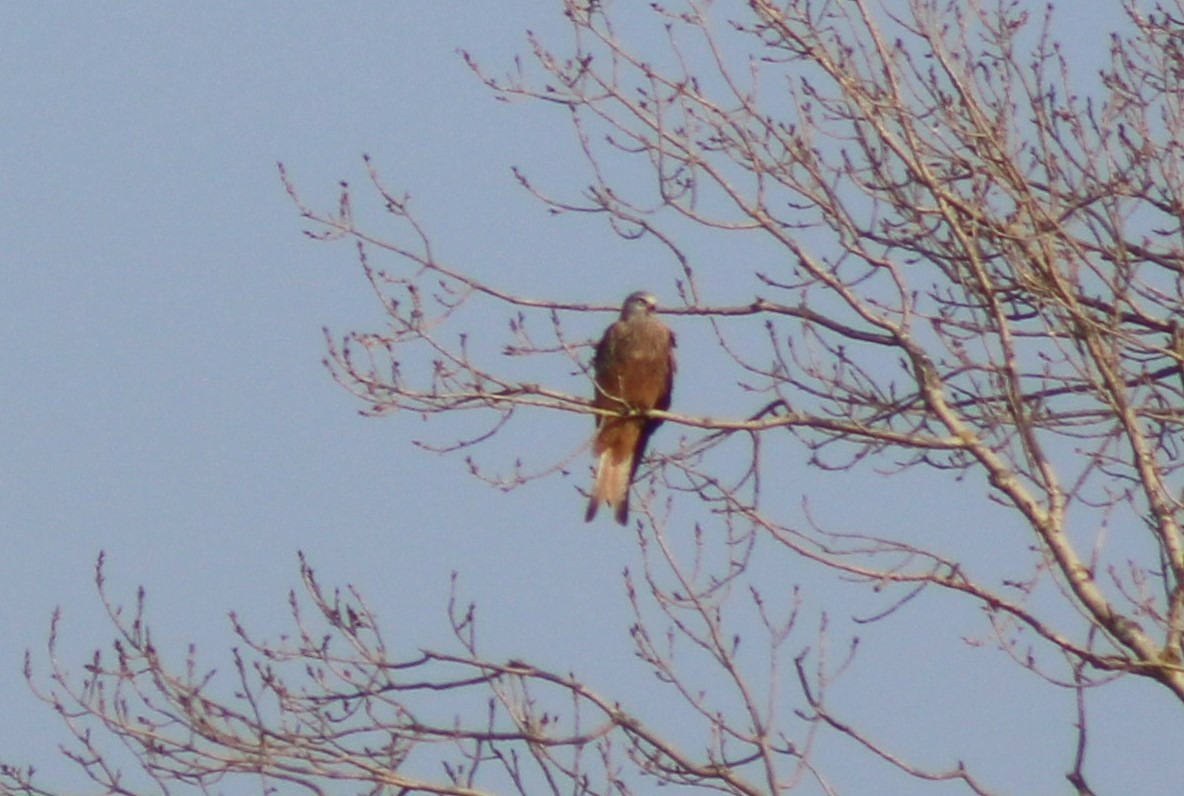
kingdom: Animalia
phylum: Chordata
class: Aves
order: Accipitriformes
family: Accipitridae
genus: Milvus
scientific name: Milvus milvus
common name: Rød glente
